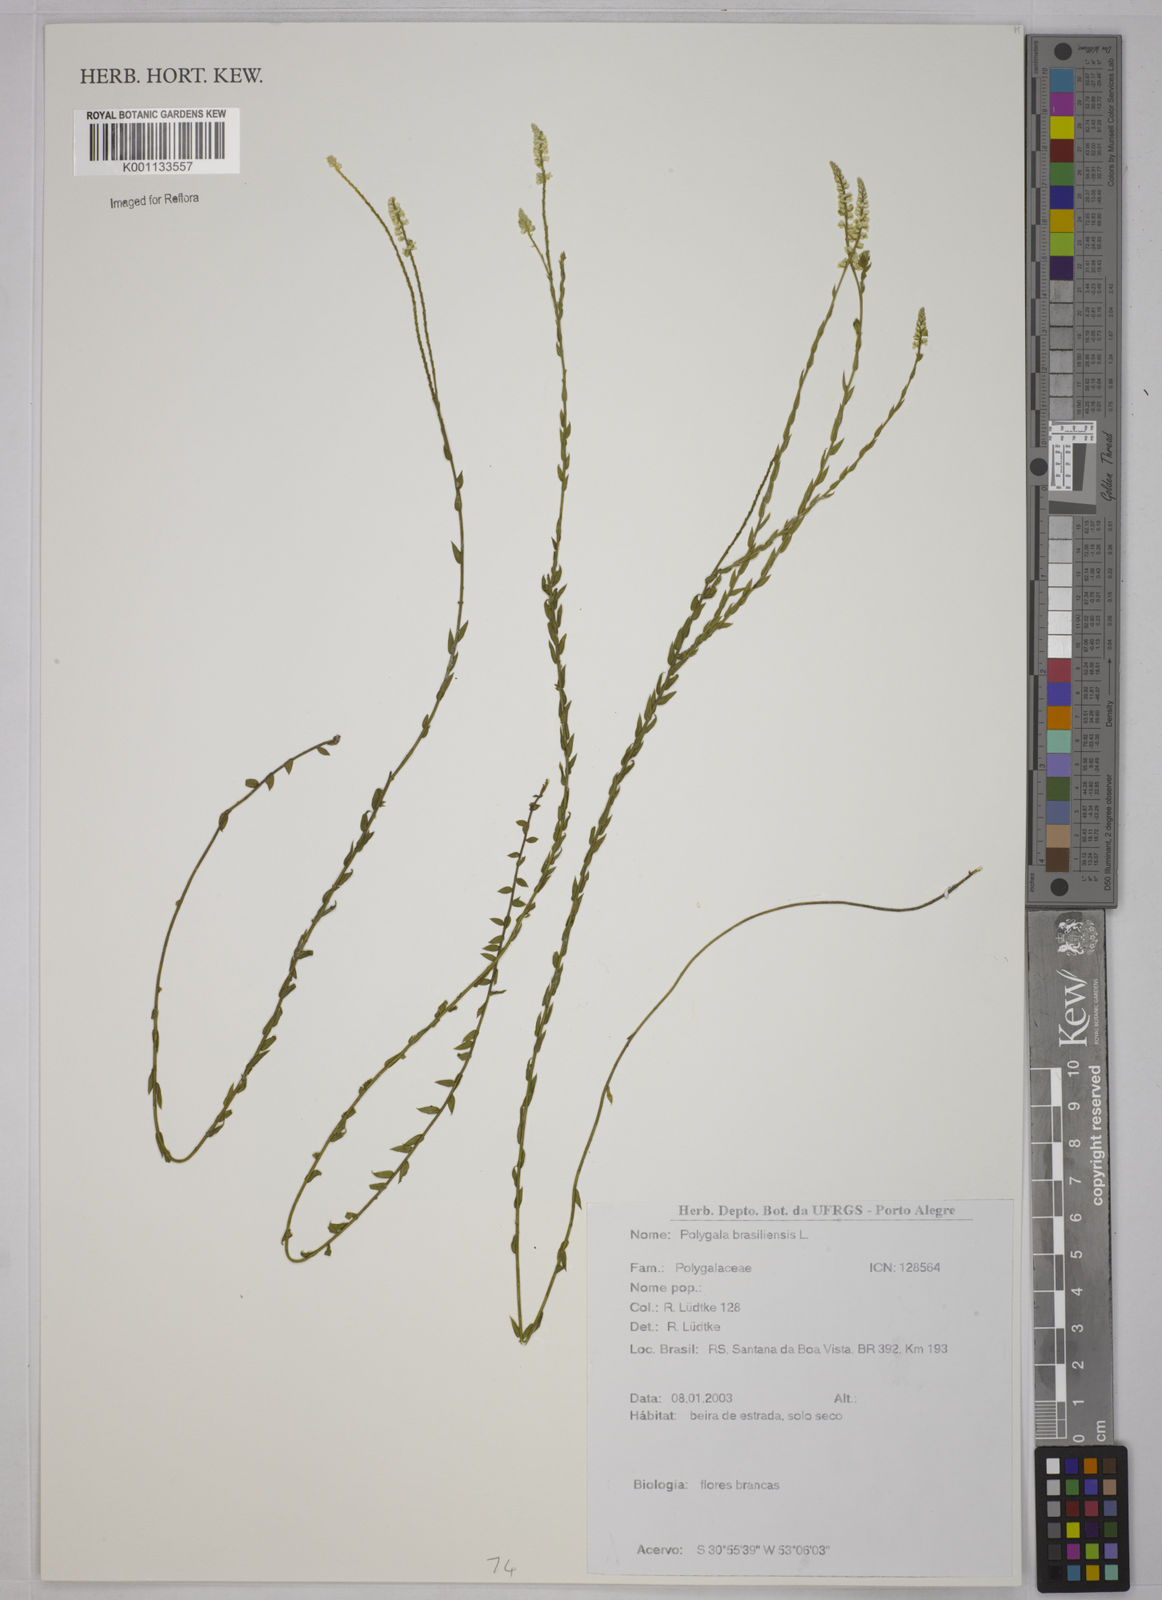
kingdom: Plantae
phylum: Tracheophyta
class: Magnoliopsida
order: Fabales
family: Polygalaceae
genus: Polygala
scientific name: Polygala brasiliensis
